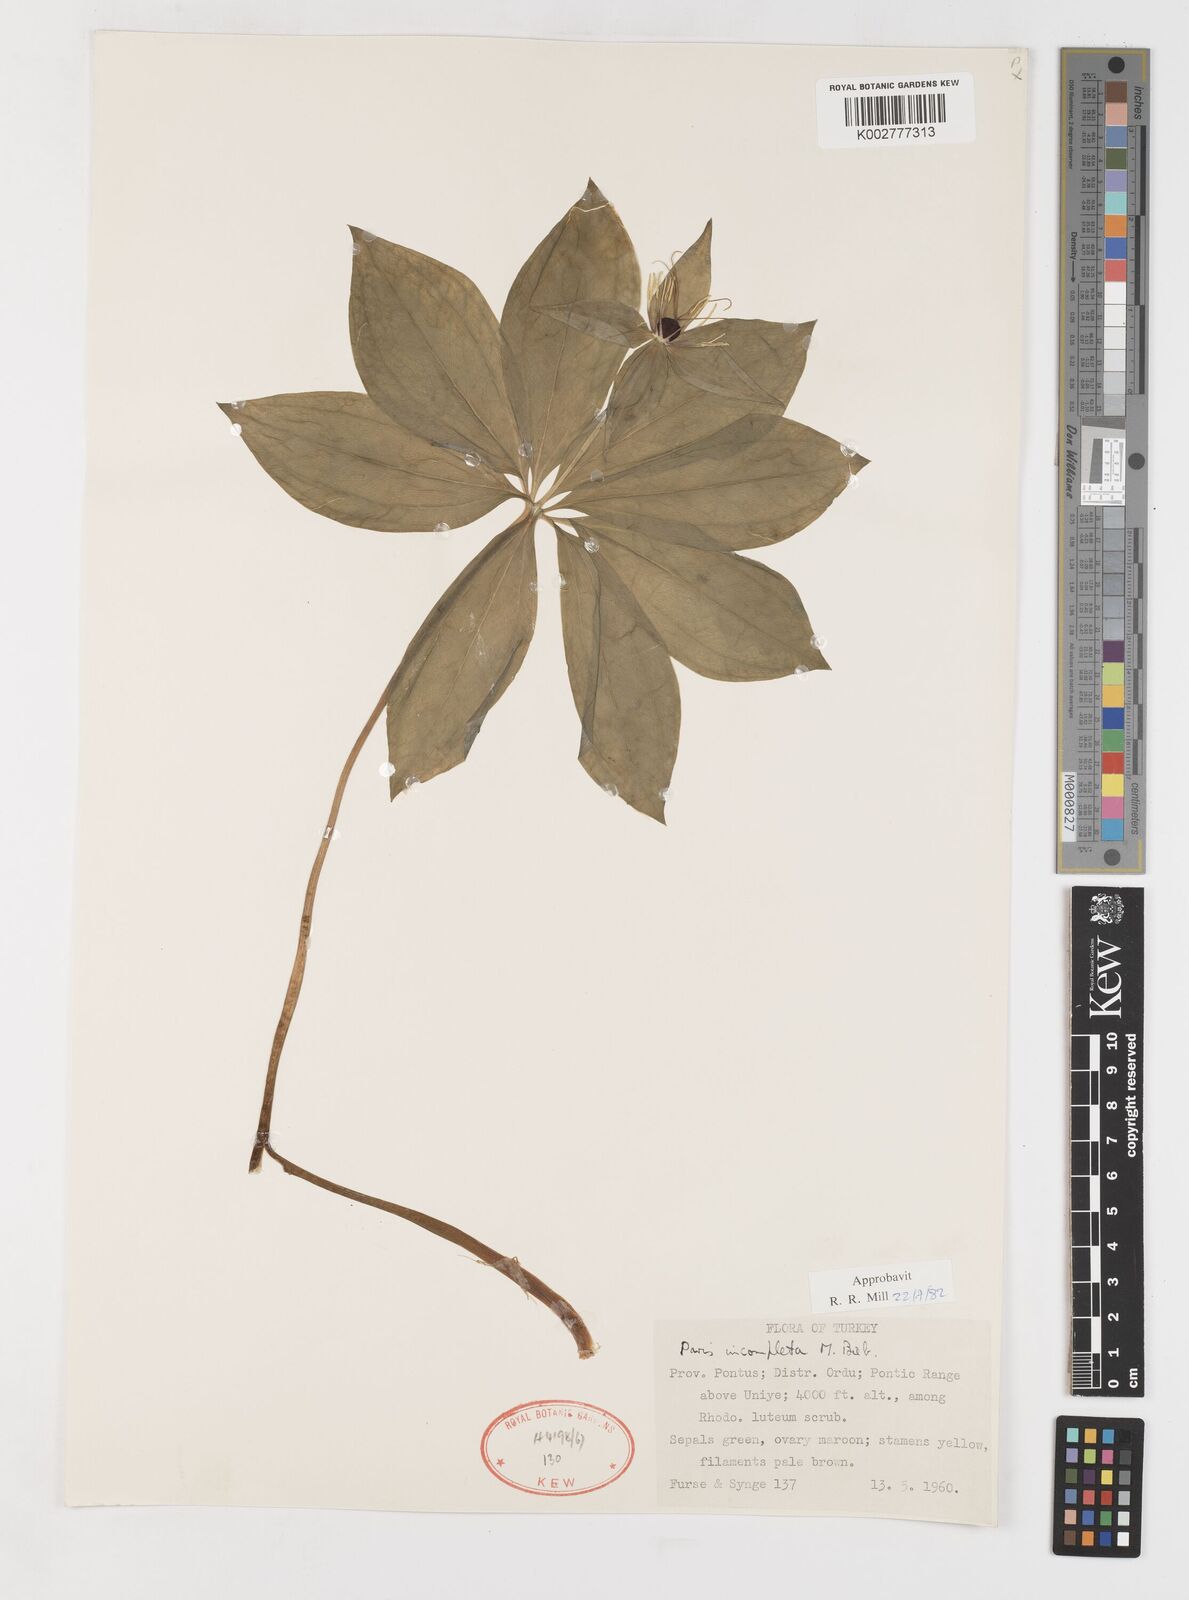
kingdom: Plantae
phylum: Tracheophyta
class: Liliopsida
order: Liliales
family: Melanthiaceae
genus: Paris
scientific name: Paris incompleta
